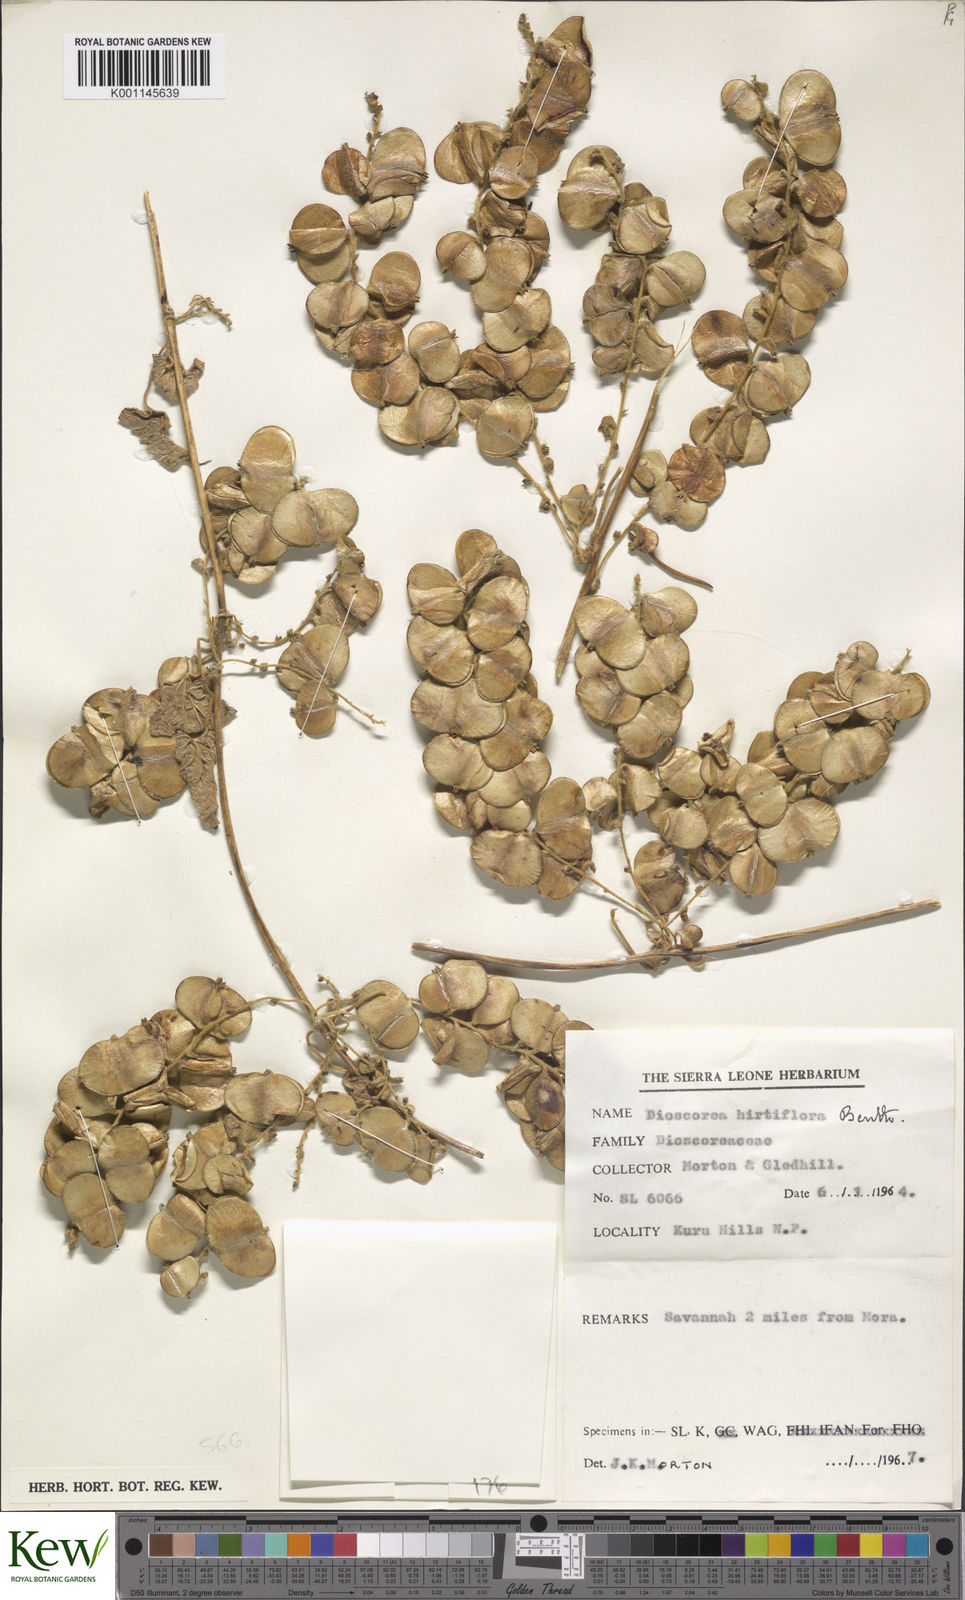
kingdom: Plantae
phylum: Tracheophyta
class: Liliopsida
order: Dioscoreales
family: Dioscoreaceae
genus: Dioscorea
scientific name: Dioscorea hirtiflora
